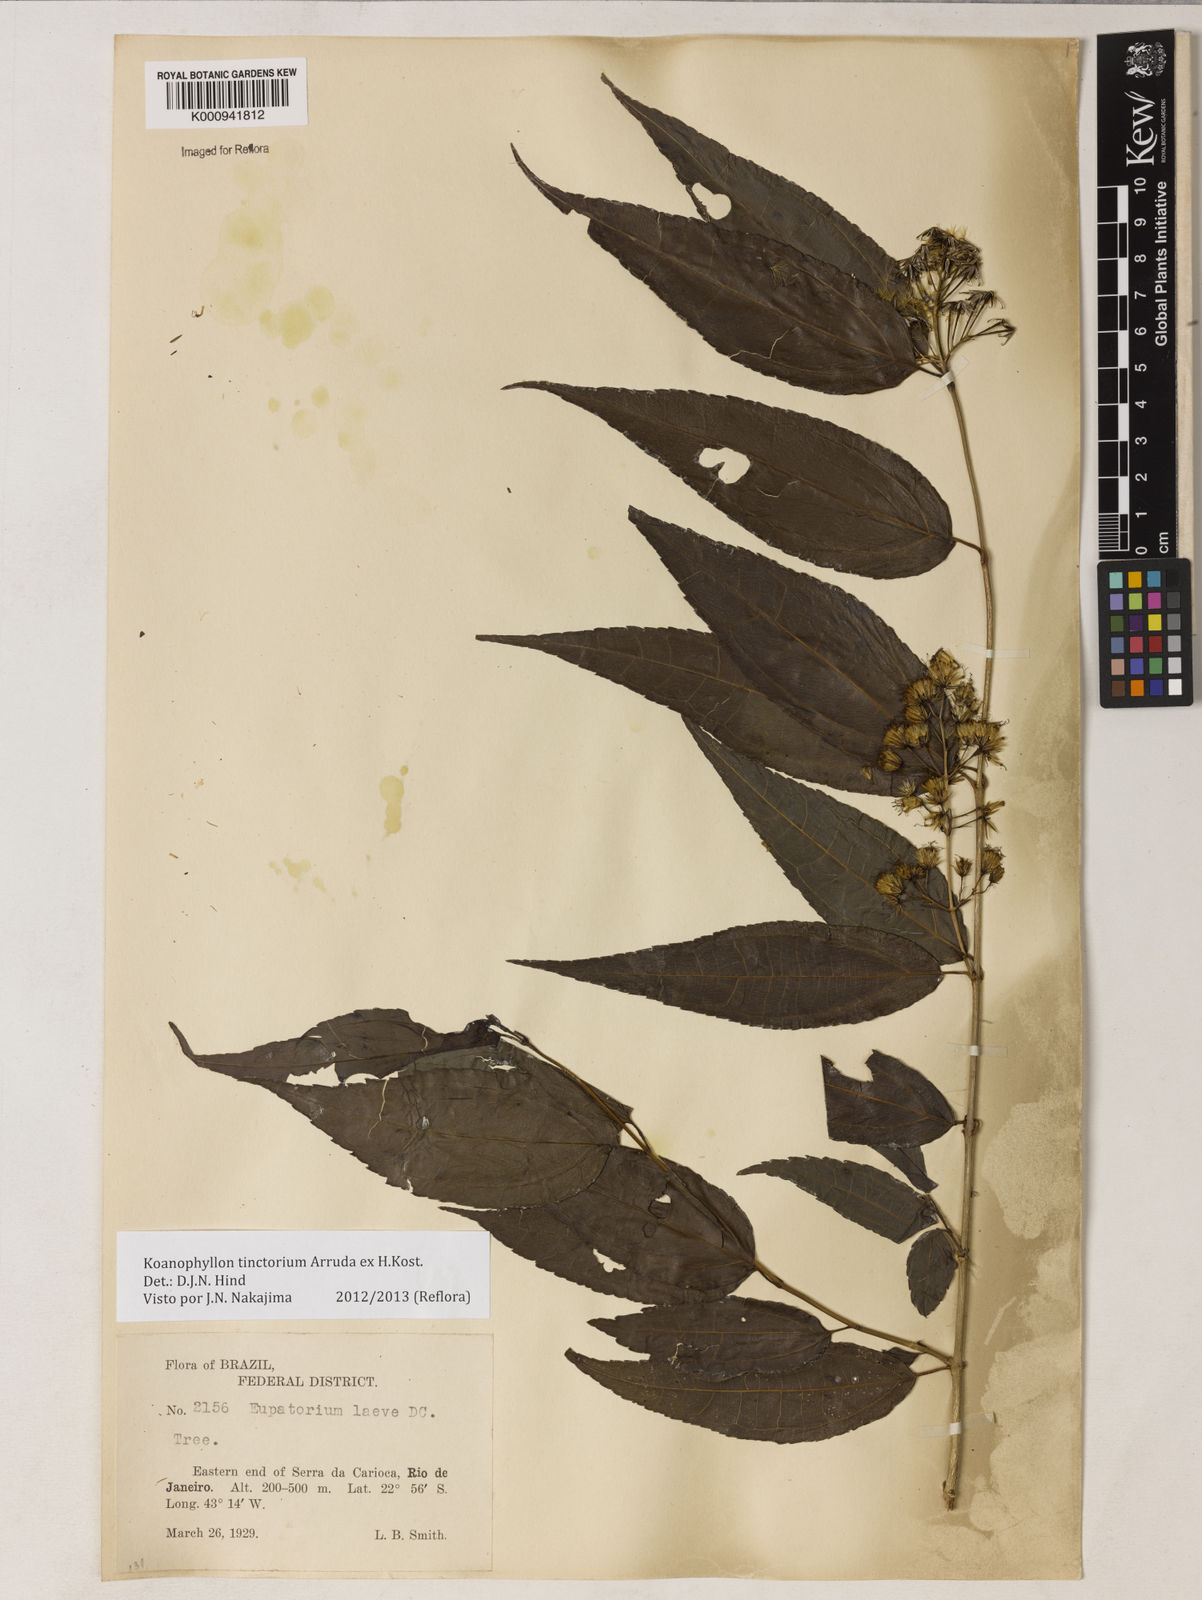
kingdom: Plantae
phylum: Tracheophyta
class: Magnoliopsida
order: Asterales
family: Asteraceae
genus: Koanophyllon
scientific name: Koanophyllon
